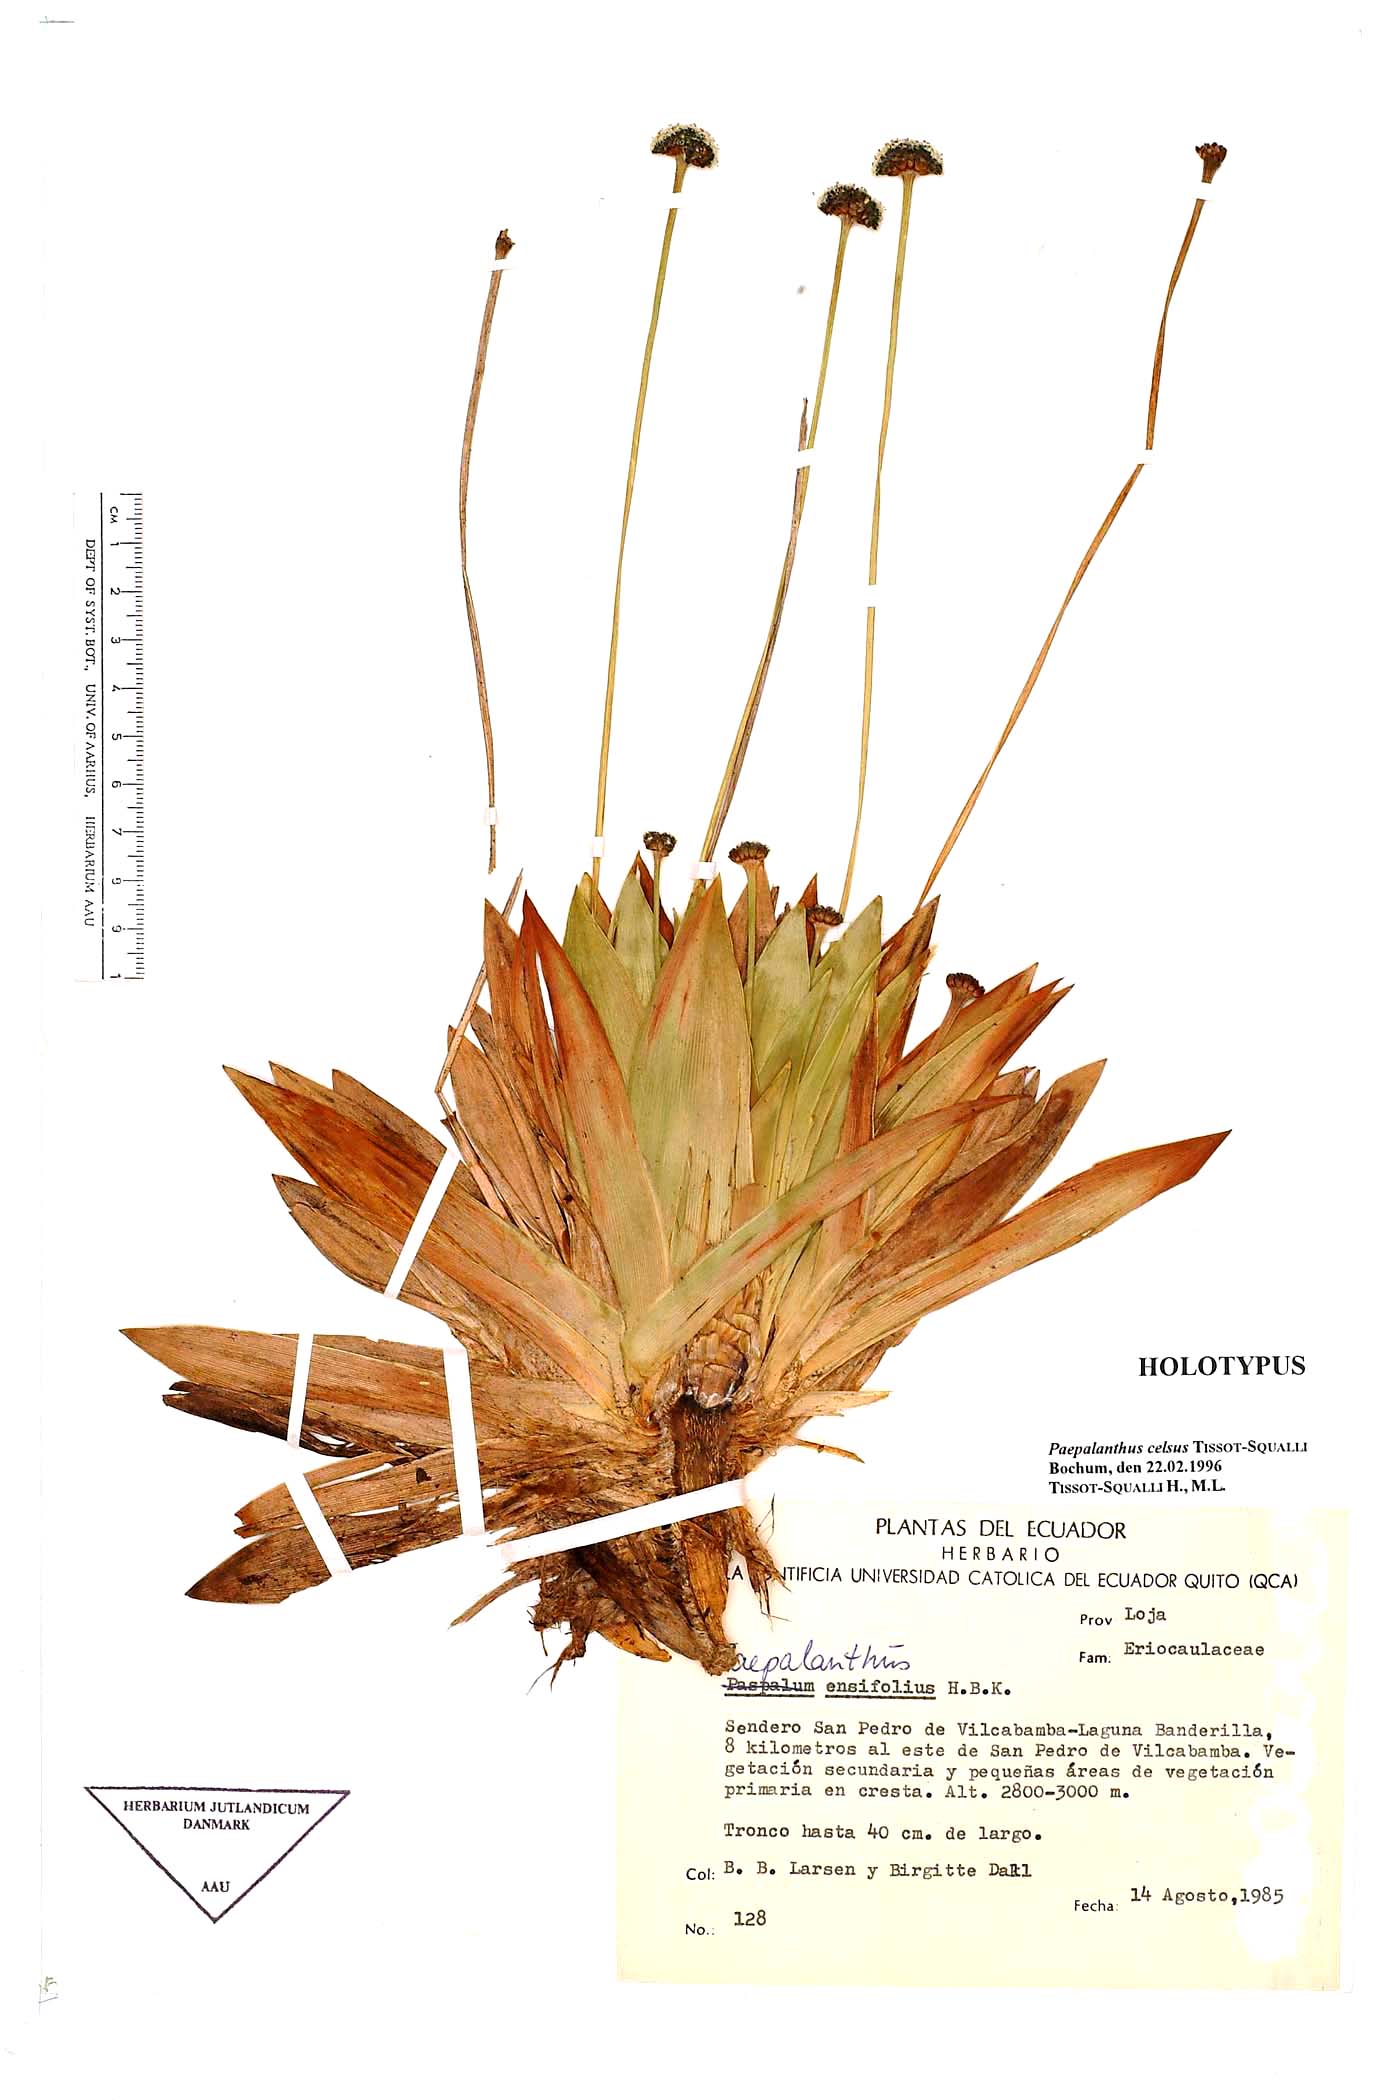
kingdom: Plantae
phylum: Tracheophyta
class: Liliopsida
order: Poales
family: Eriocaulaceae
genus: Paepalanthus
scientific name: Paepalanthus celsus
